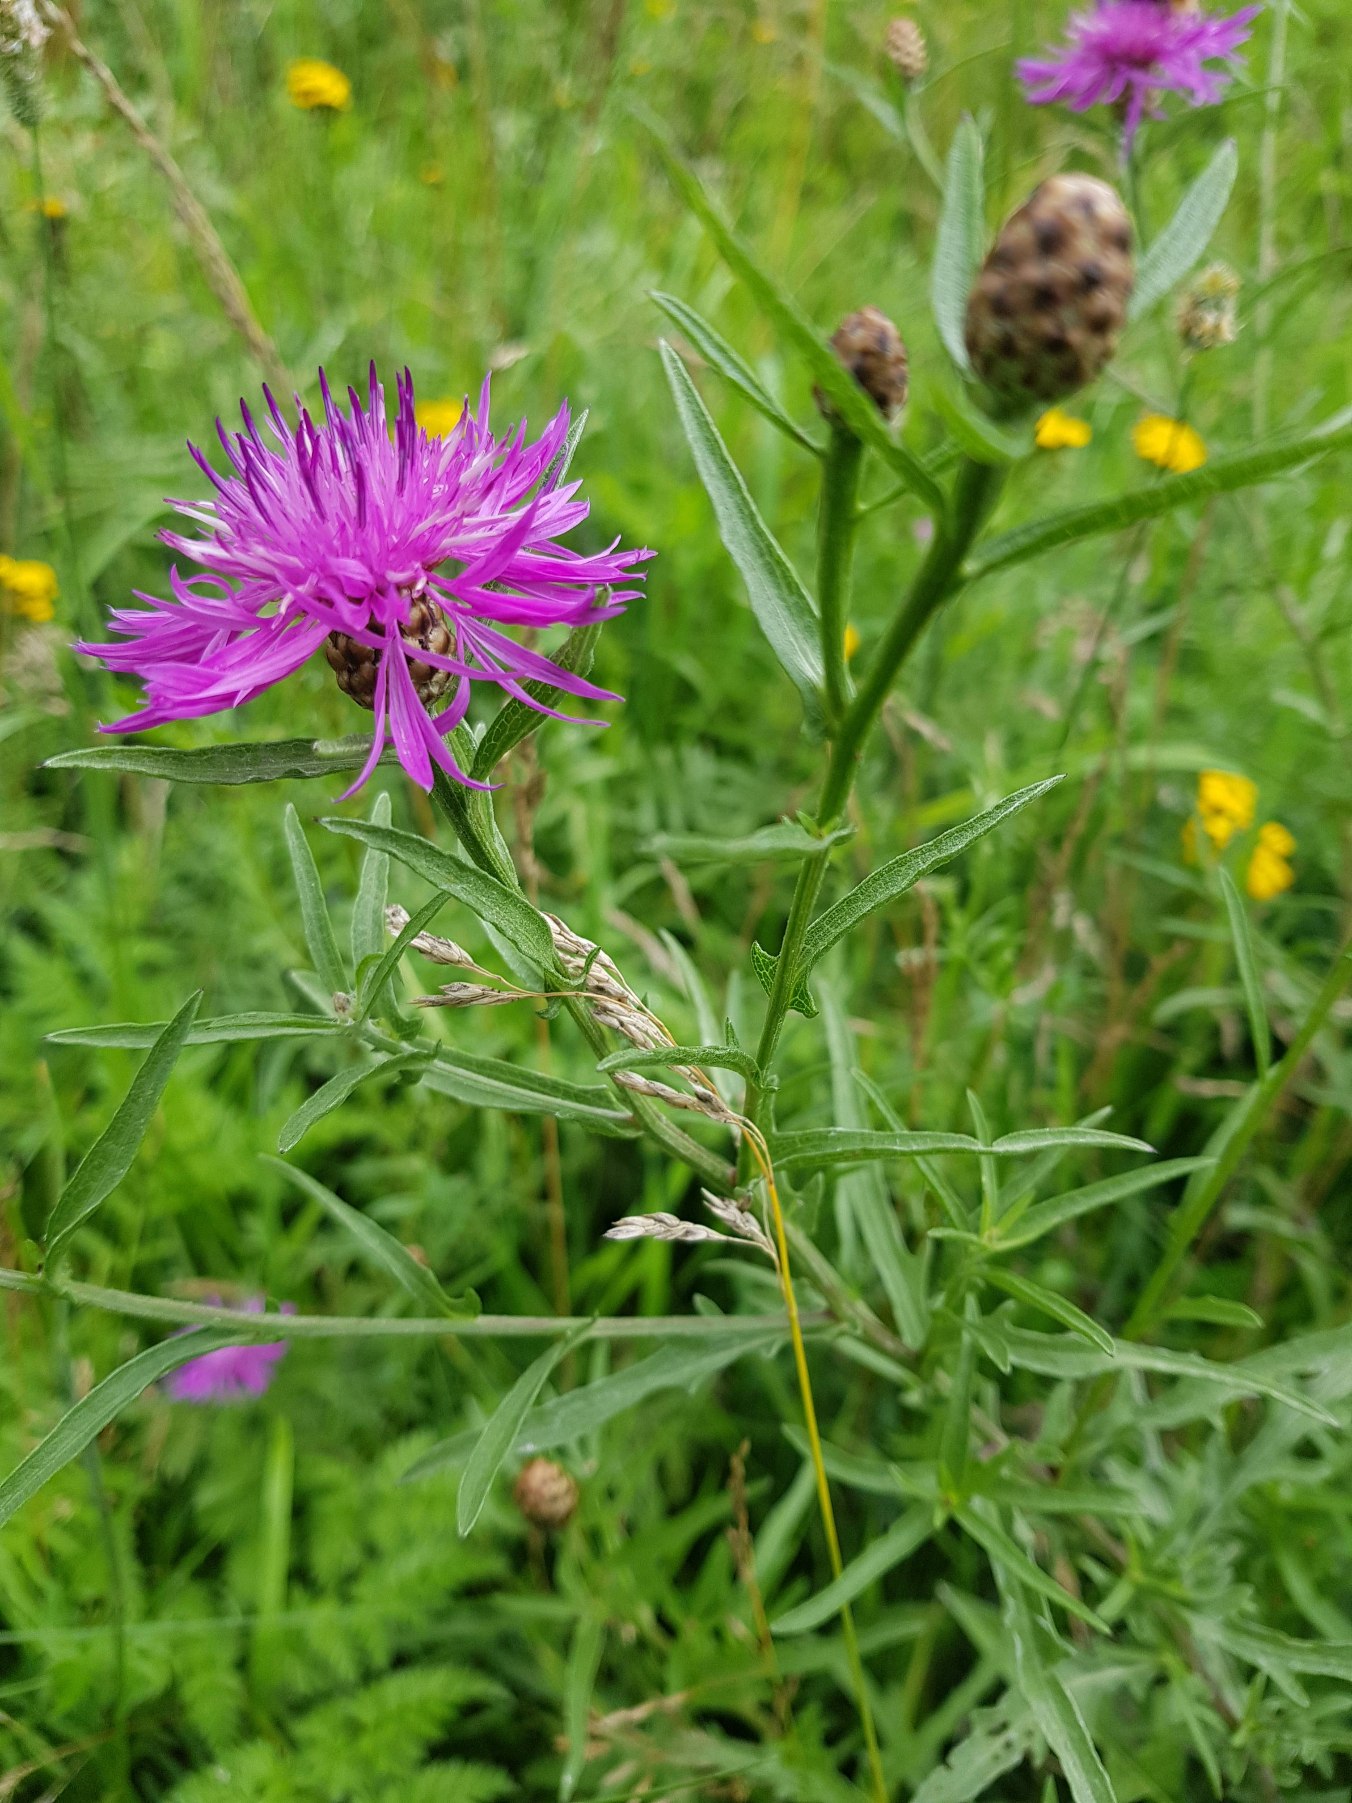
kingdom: Plantae
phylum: Tracheophyta
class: Magnoliopsida
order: Asterales
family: Asteraceae
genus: Centaurea
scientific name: Centaurea jacea
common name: Almindelig knopurt
